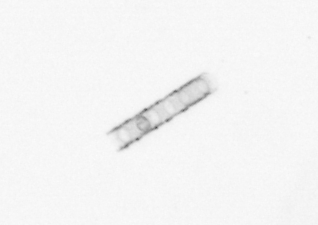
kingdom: Chromista
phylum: Ochrophyta
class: Bacillariophyceae
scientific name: Bacillariophyceae
